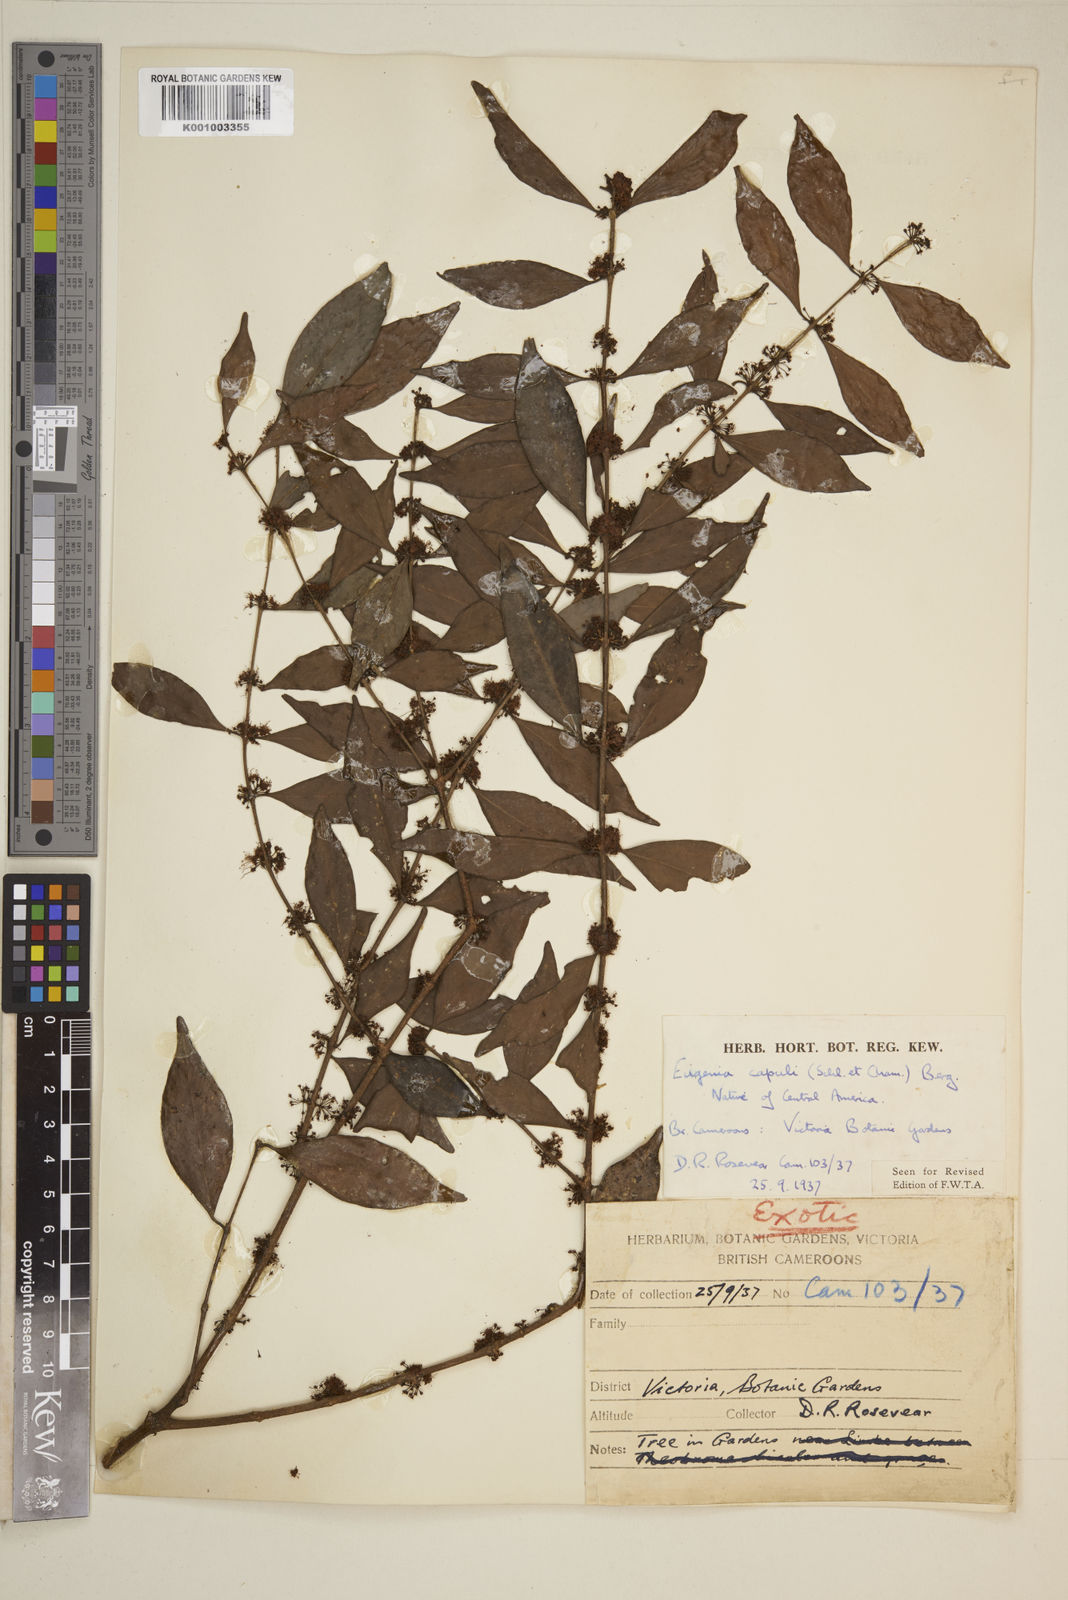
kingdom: Plantae
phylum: Tracheophyta
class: Magnoliopsida
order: Myrtales
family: Myrtaceae
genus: Eugenia
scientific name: Eugenia capuli
